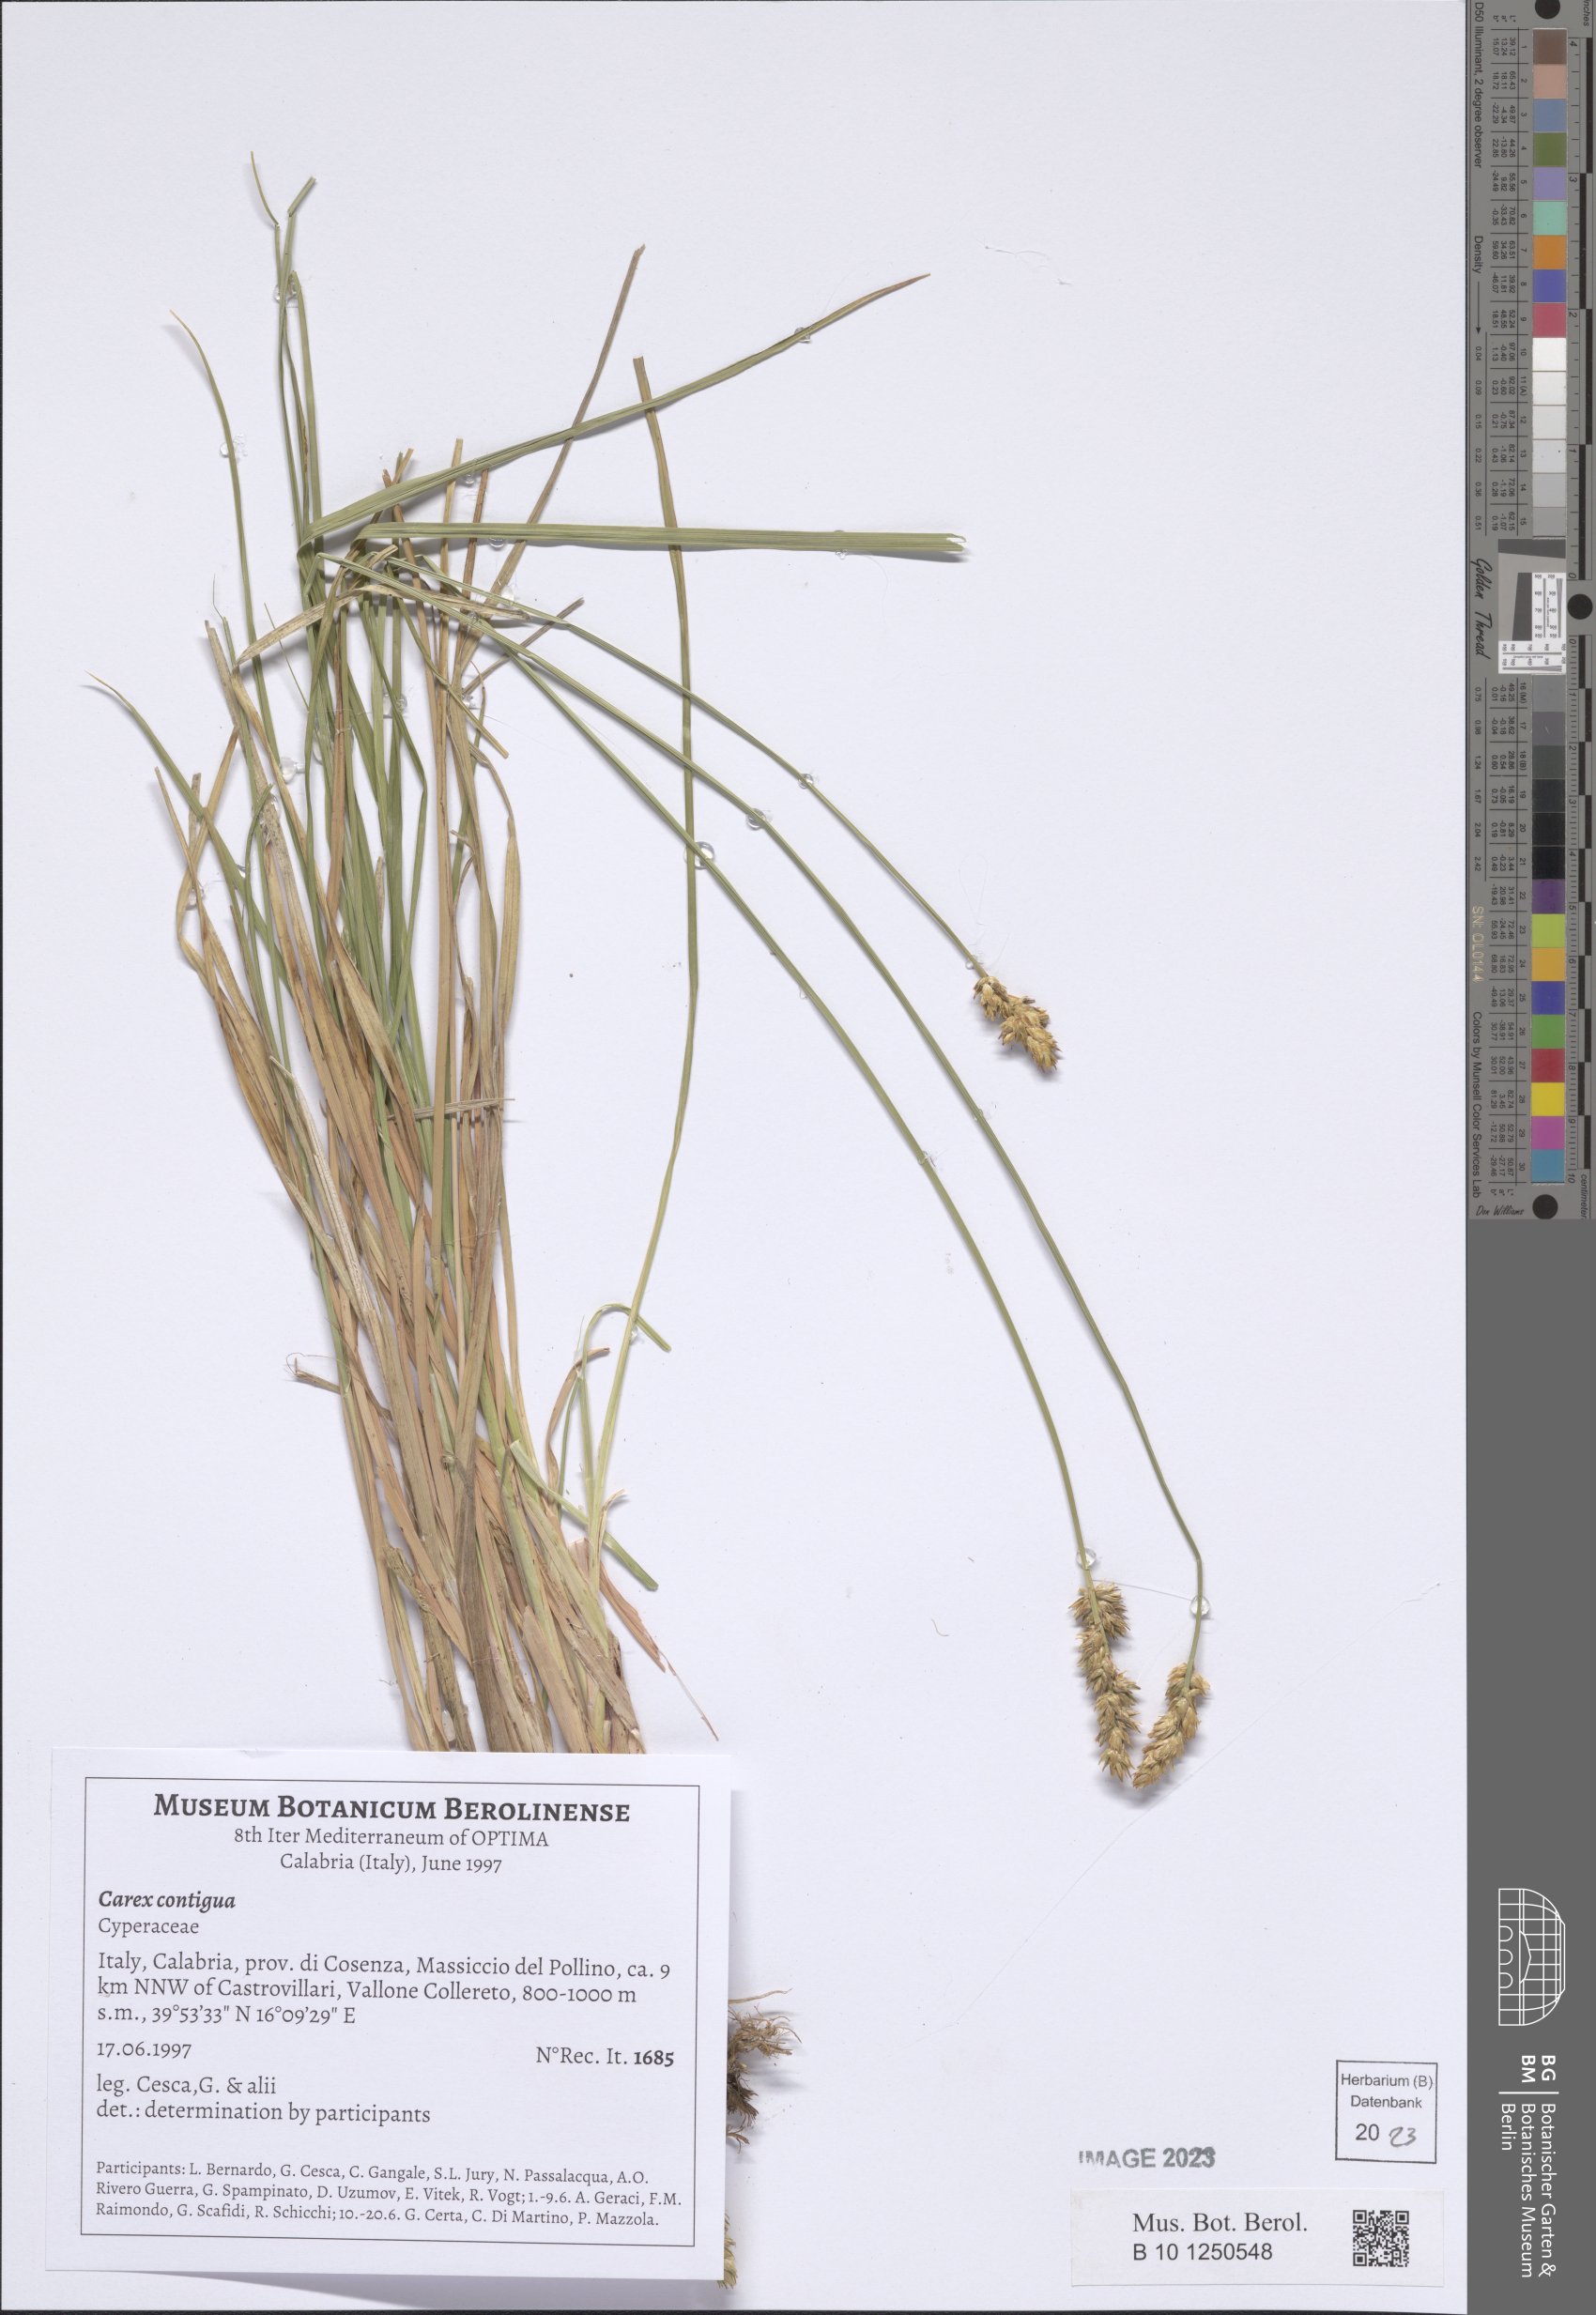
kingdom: Plantae
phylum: Tracheophyta
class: Liliopsida
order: Poales
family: Cyperaceae
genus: Carex
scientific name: Carex spicata
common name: Spiked sedge
